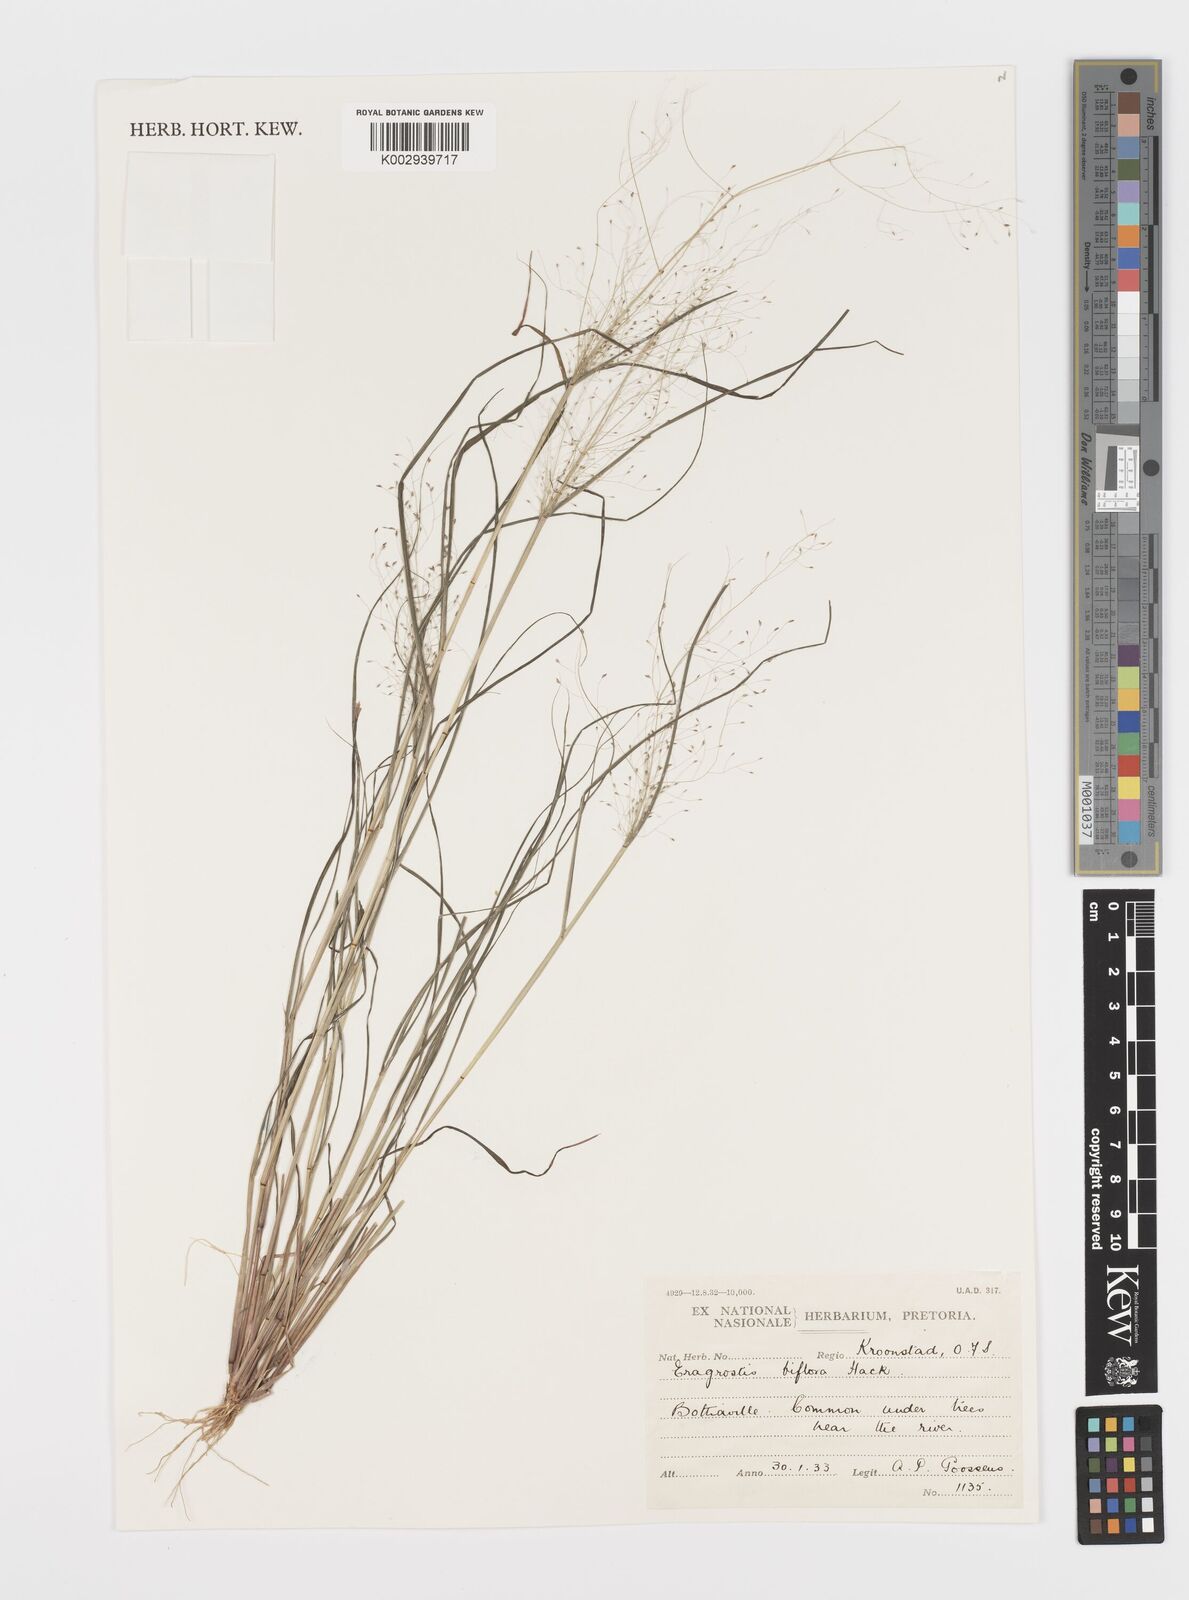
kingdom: Plantae
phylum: Tracheophyta
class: Liliopsida
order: Poales
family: Poaceae
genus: Eragrostis
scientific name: Eragrostis biflora
